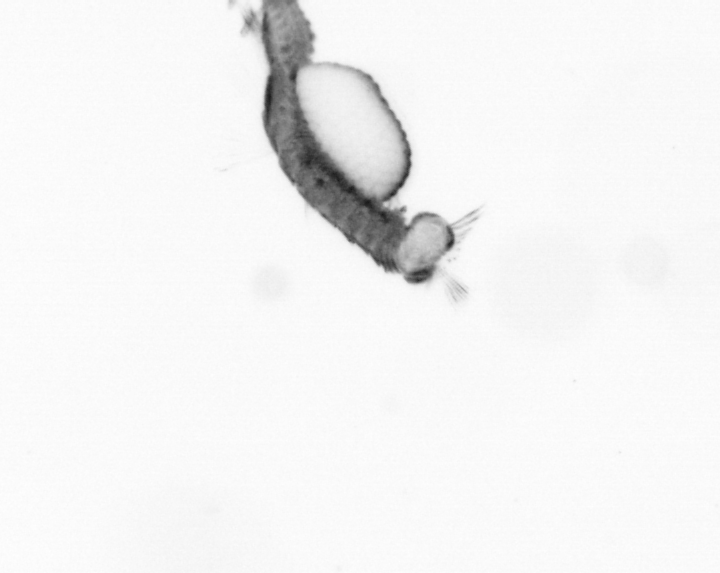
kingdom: Animalia
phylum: Annelida
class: Polychaeta
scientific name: Polychaeta
